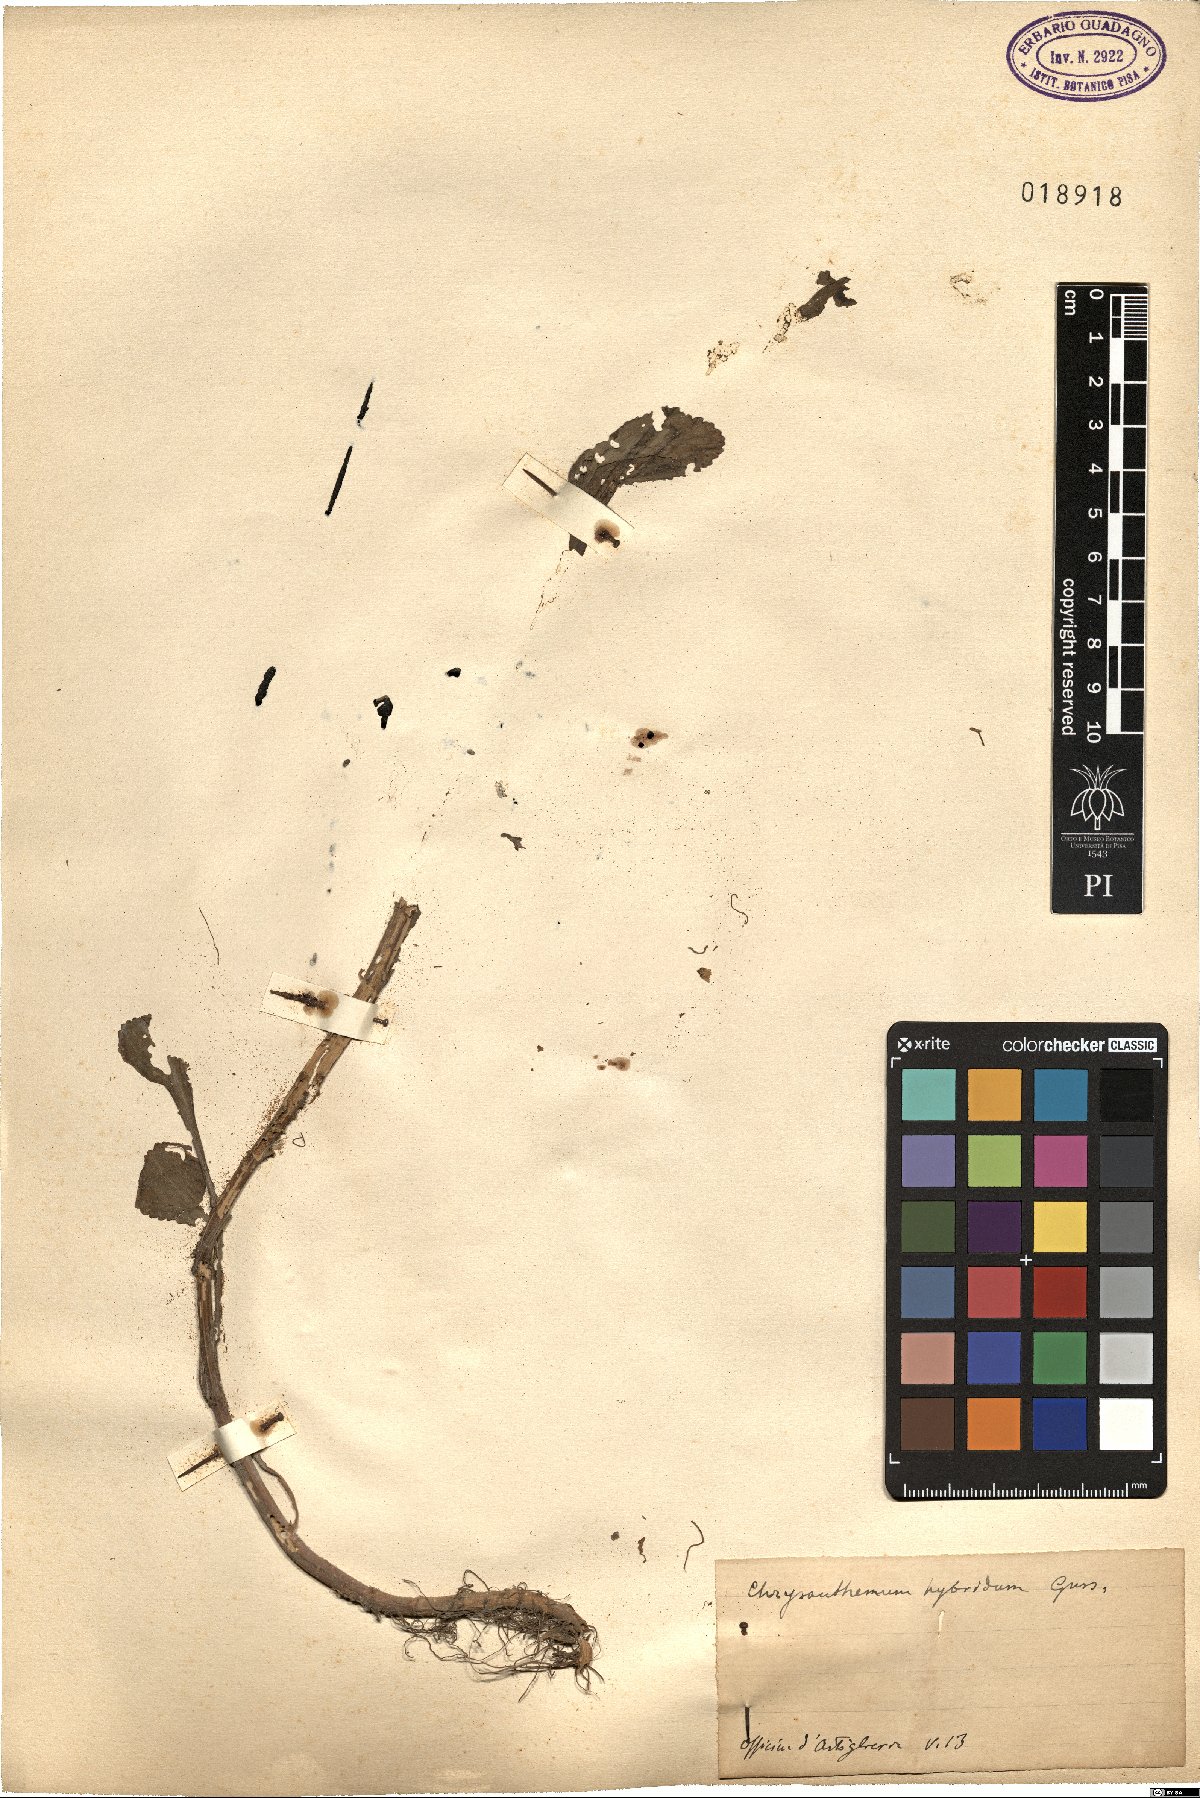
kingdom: Plantae
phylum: Tracheophyta
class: Magnoliopsida
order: Asterales
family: Asteraceae
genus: Coleostephus
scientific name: Coleostephus myconis
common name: Mediterranean marigold
